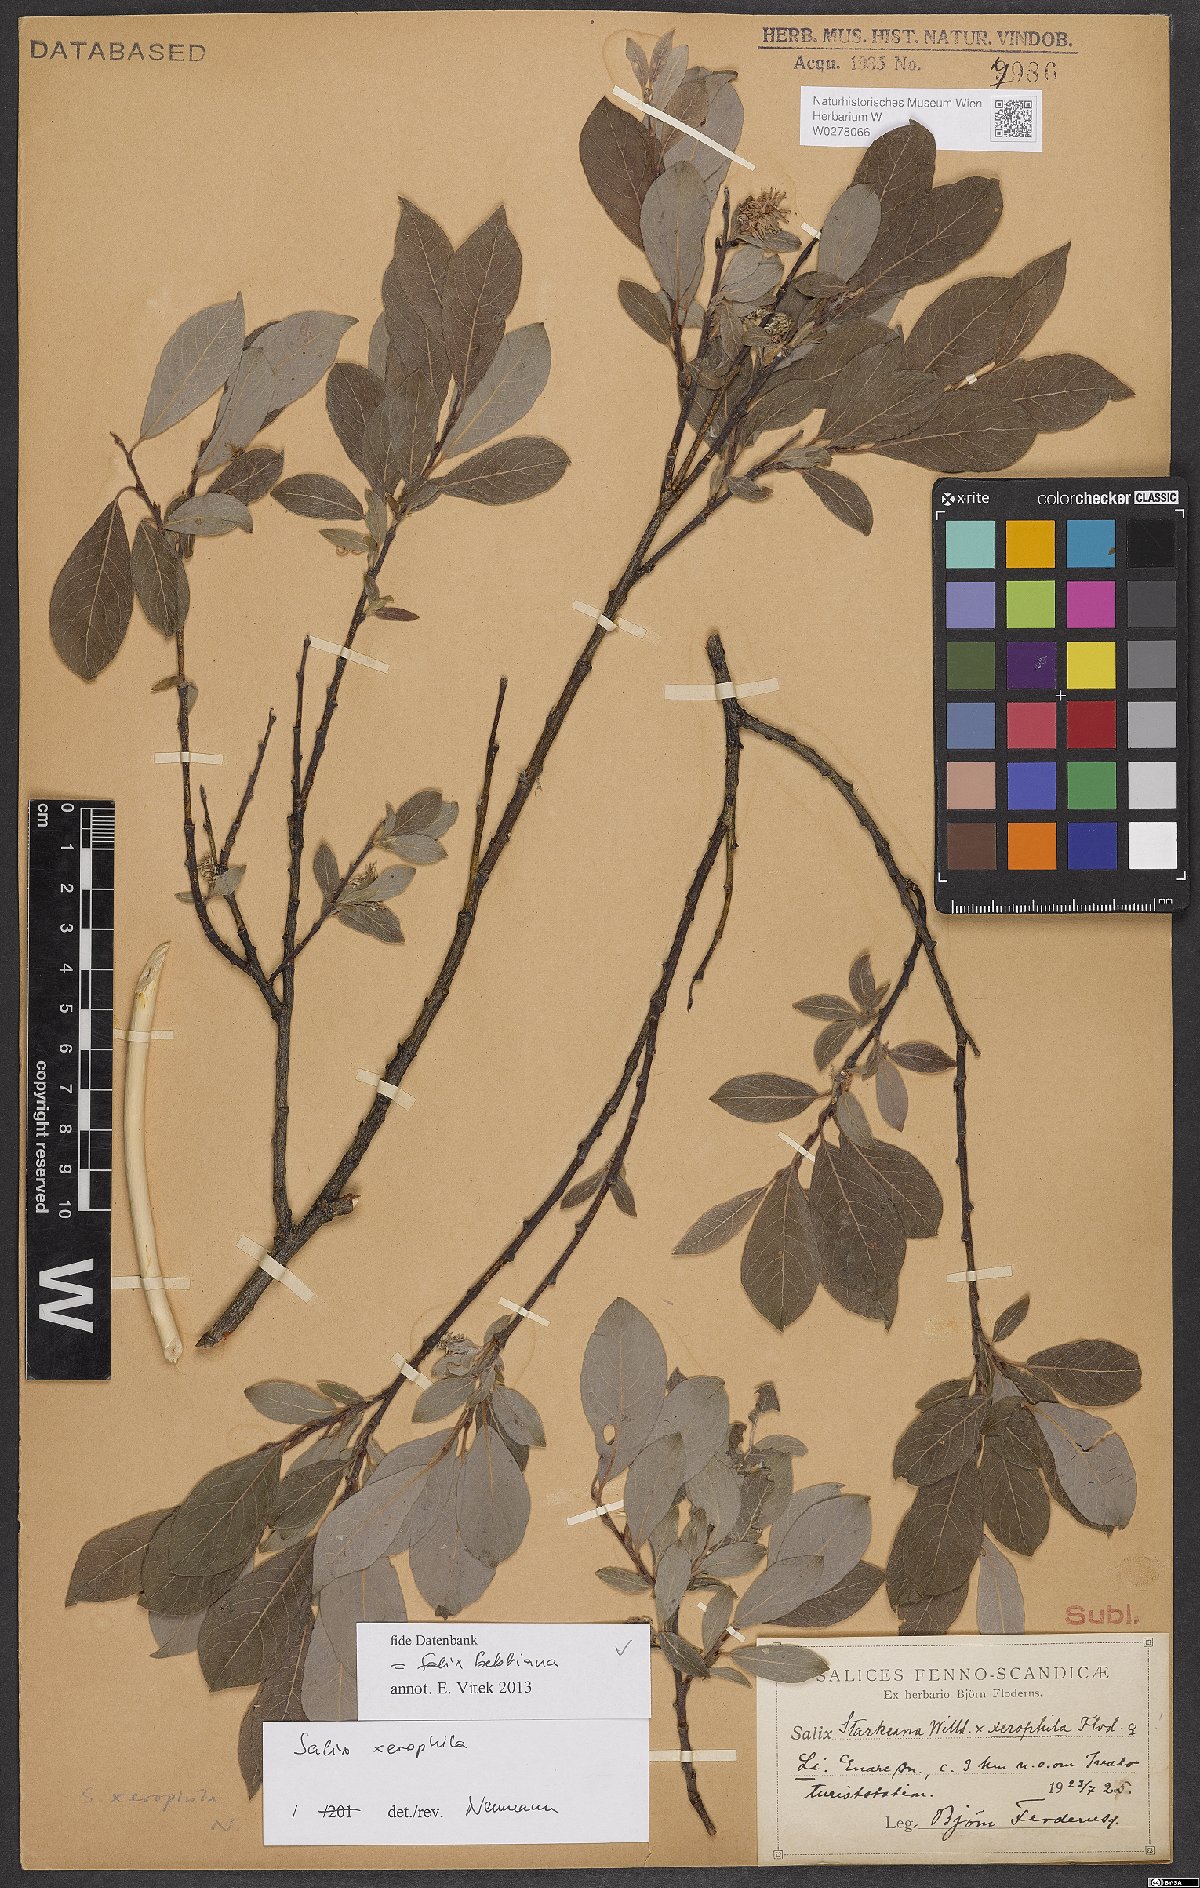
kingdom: Plantae
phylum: Tracheophyta
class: Magnoliopsida
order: Malpighiales
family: Salicaceae
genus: Salix
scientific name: Salix bebbiana
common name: Bebb's willow
